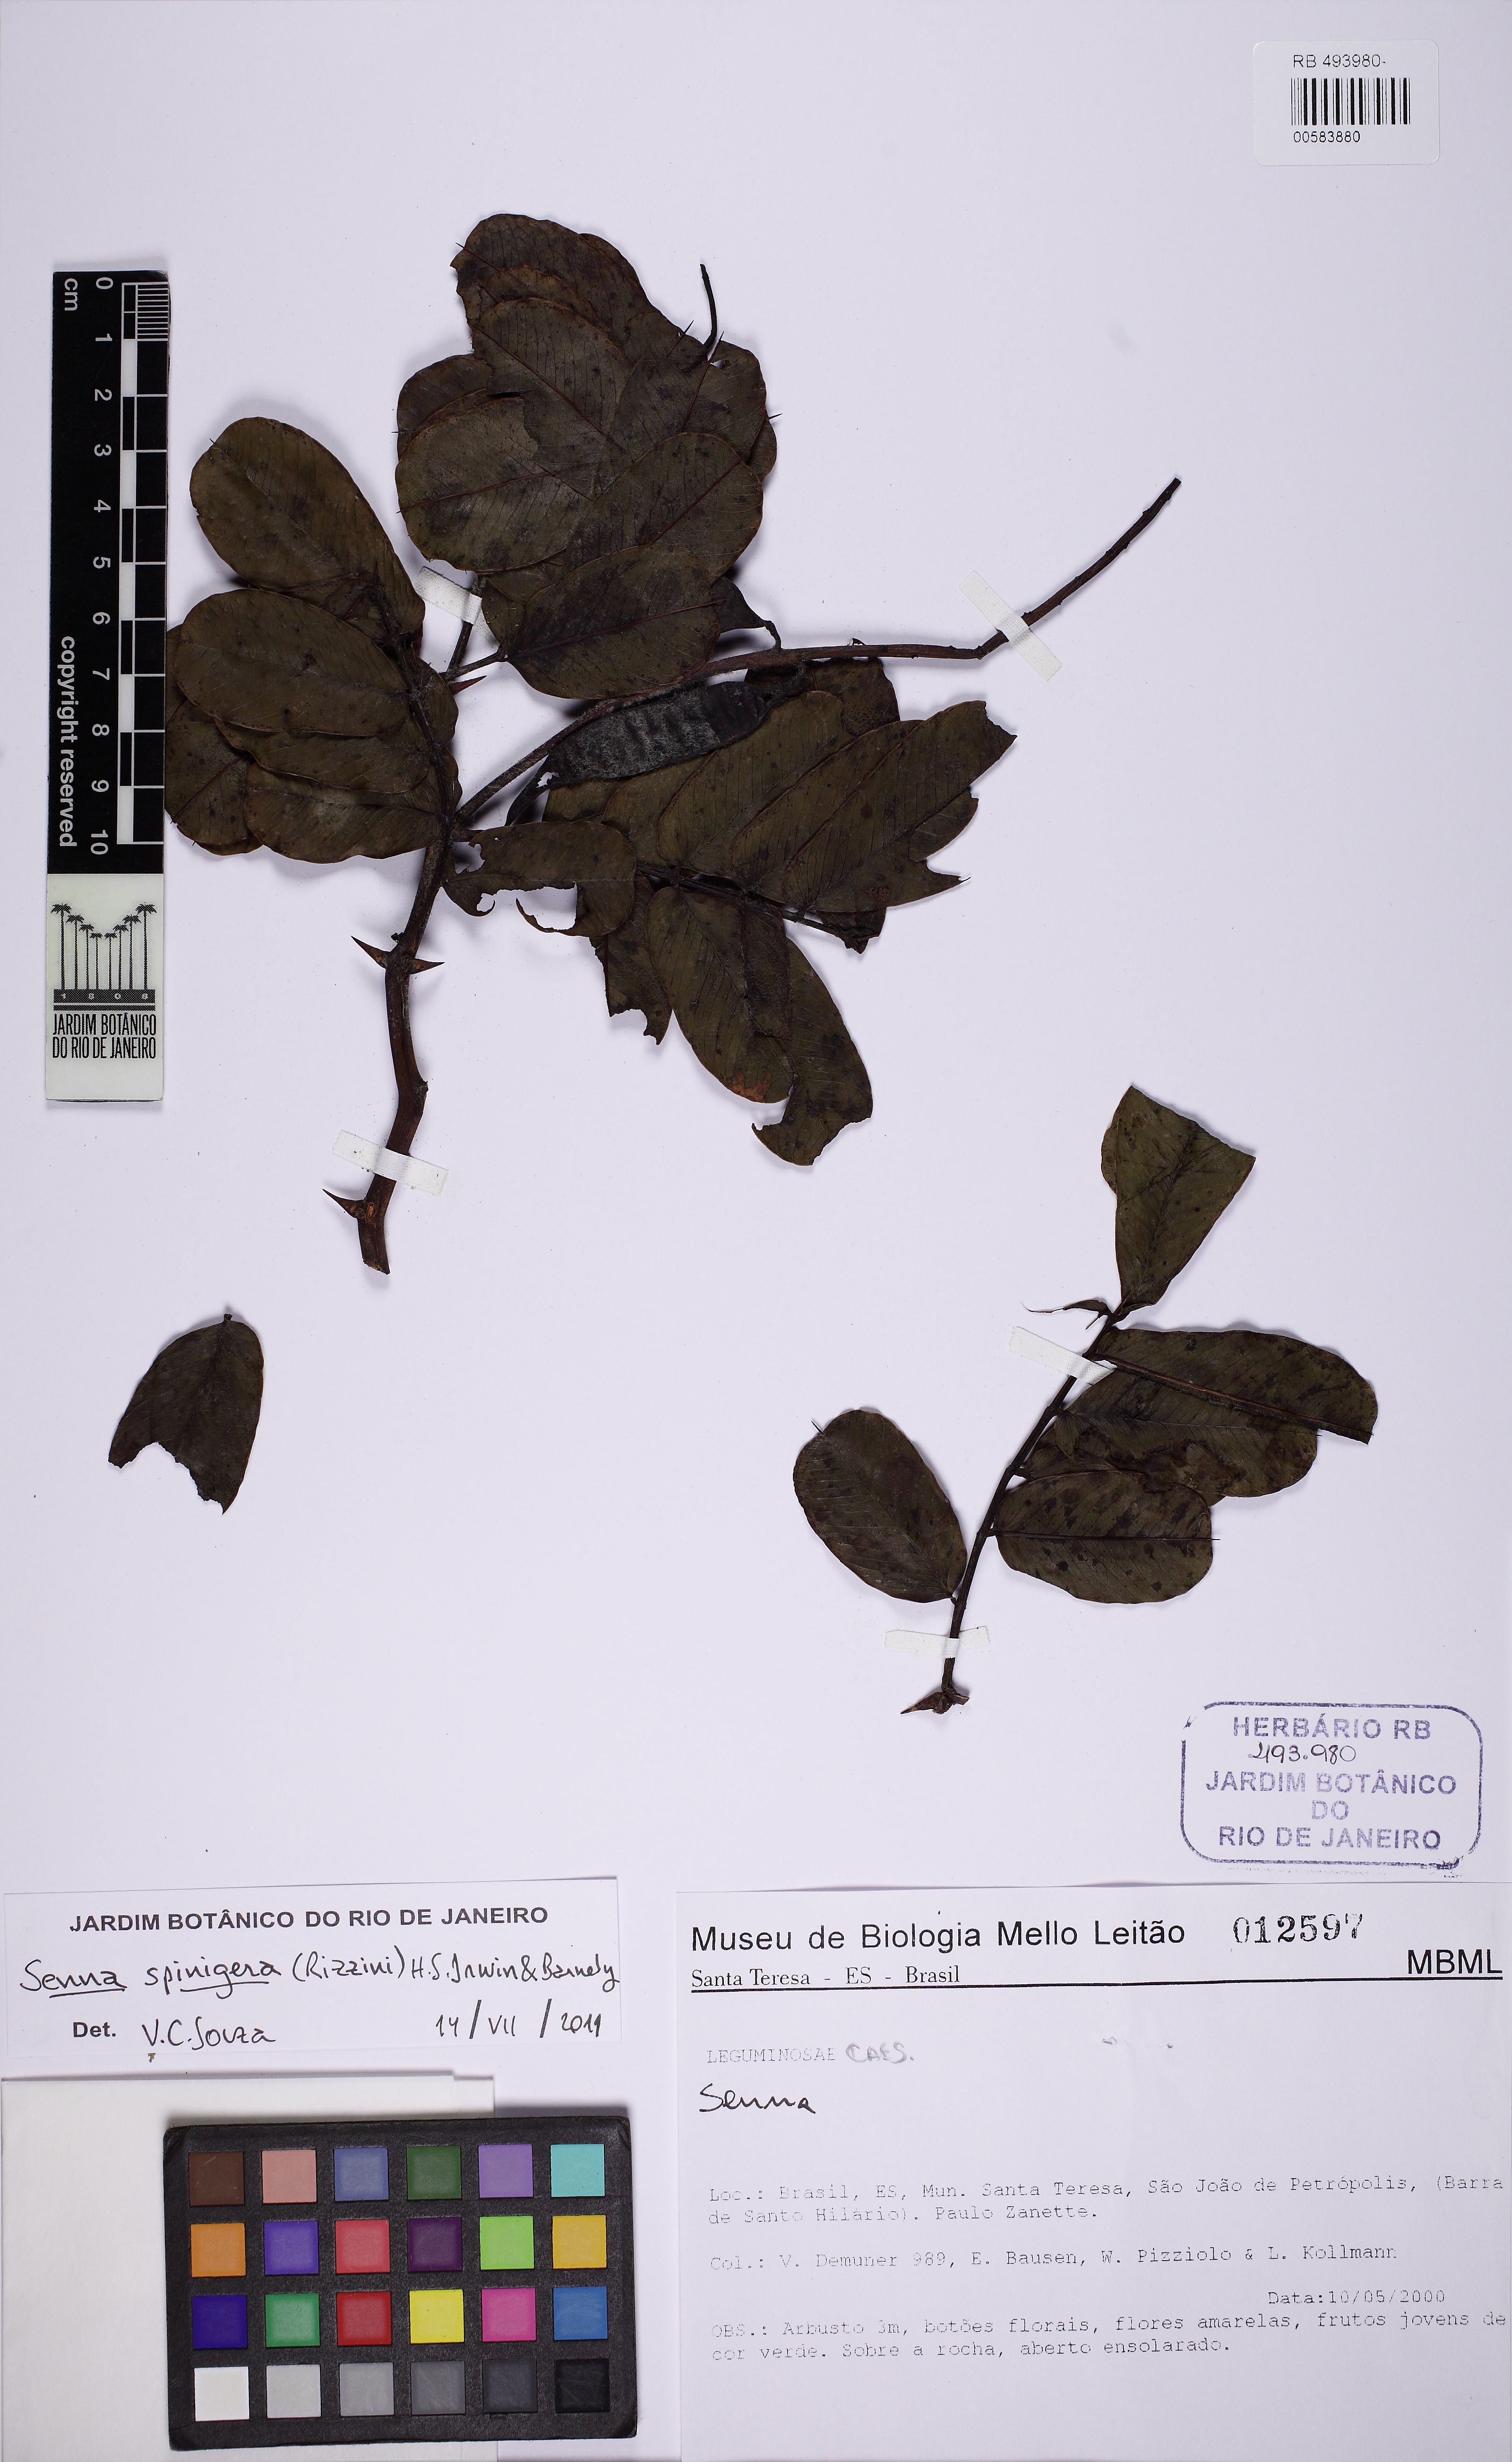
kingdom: Plantae
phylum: Tracheophyta
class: Magnoliopsida
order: Fabales
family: Fabaceae
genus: Senna
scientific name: Senna spinigera
